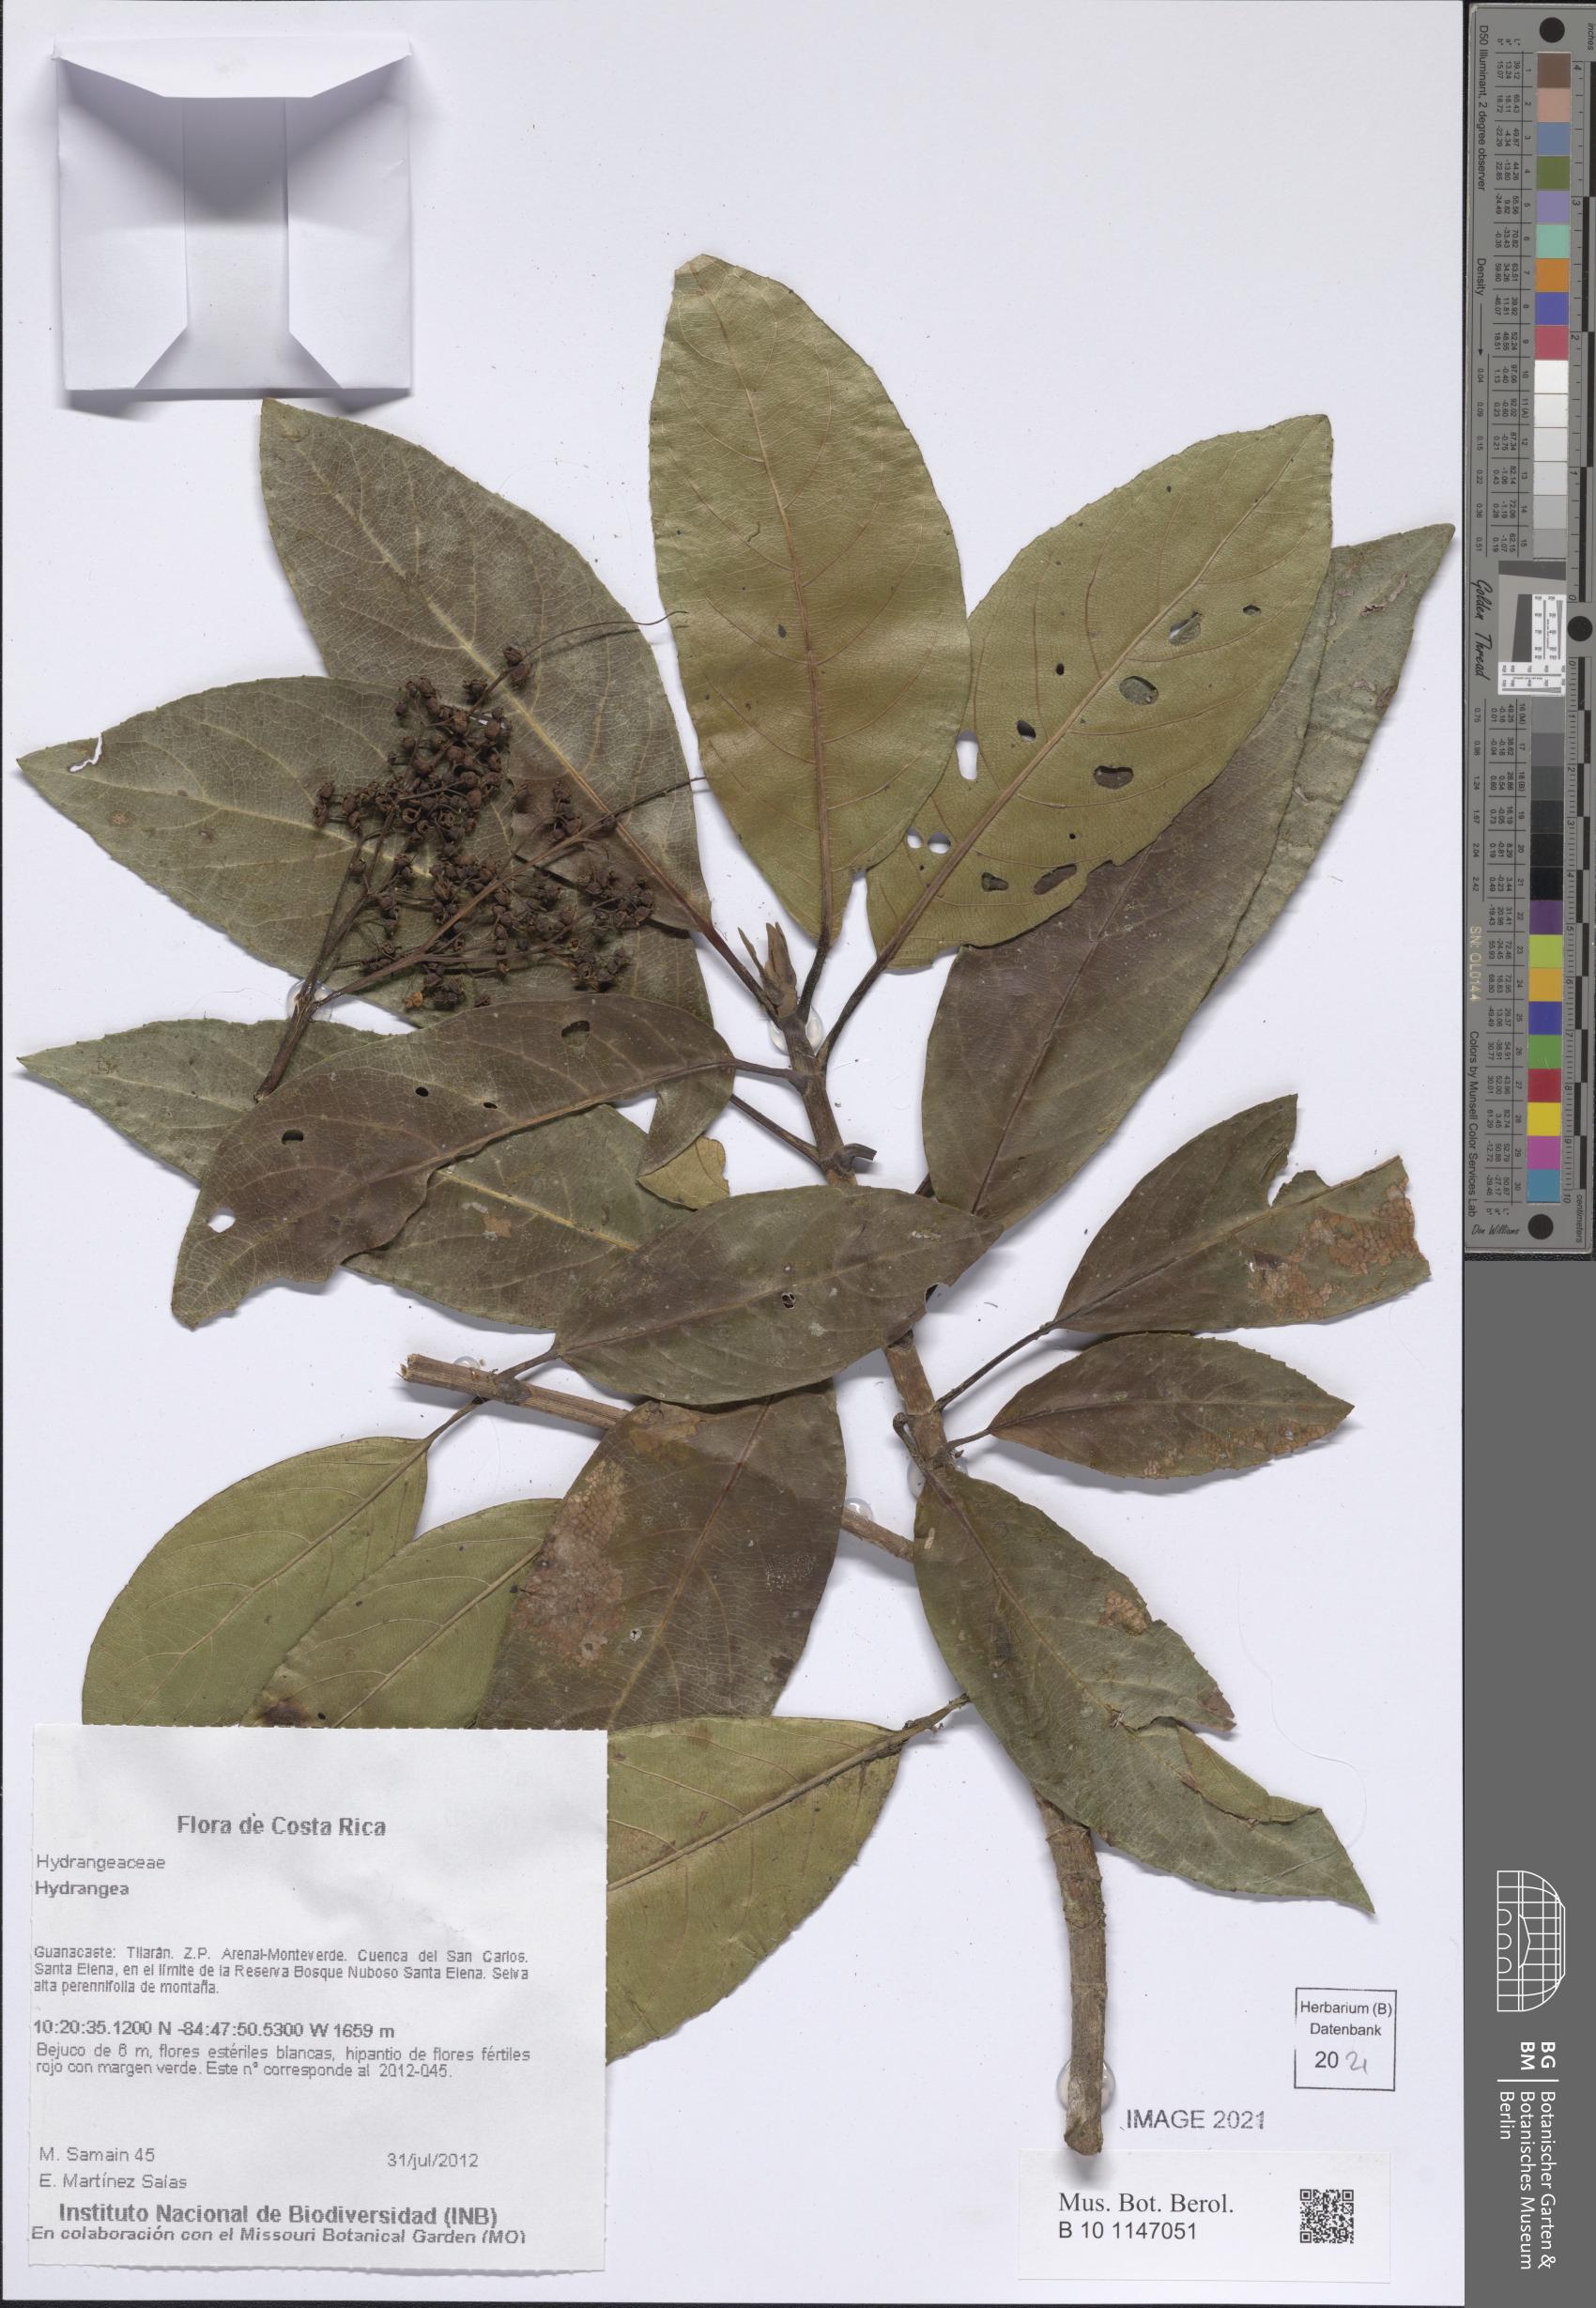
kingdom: Plantae
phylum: Tracheophyta
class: Magnoliopsida
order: Cornales
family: Hydrangeaceae
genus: Hydrangea
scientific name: Hydrangea
